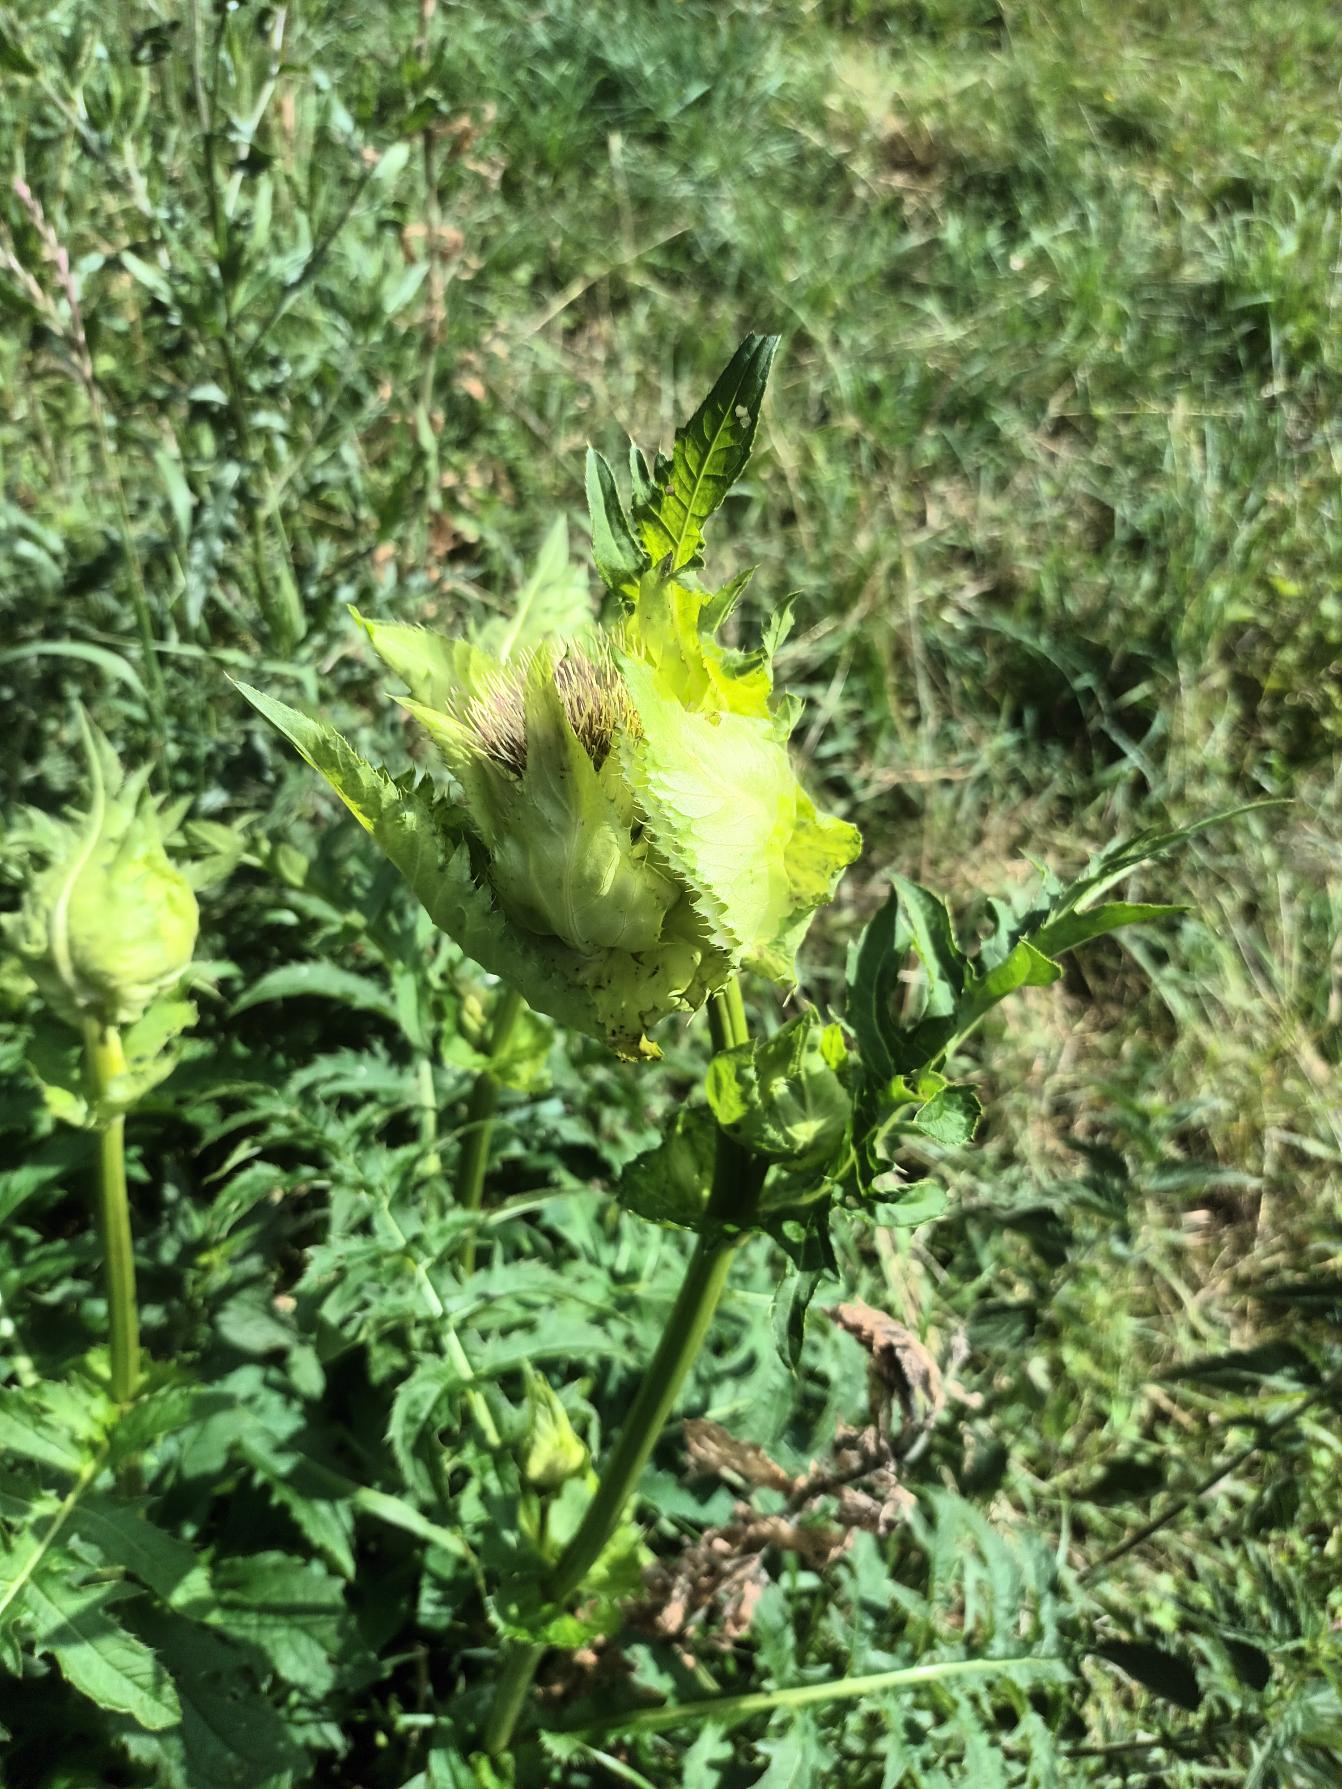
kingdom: Plantae
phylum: Tracheophyta
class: Magnoliopsida
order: Asterales
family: Asteraceae
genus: Cirsium
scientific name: Cirsium oleraceum
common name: Kål-tidsel
